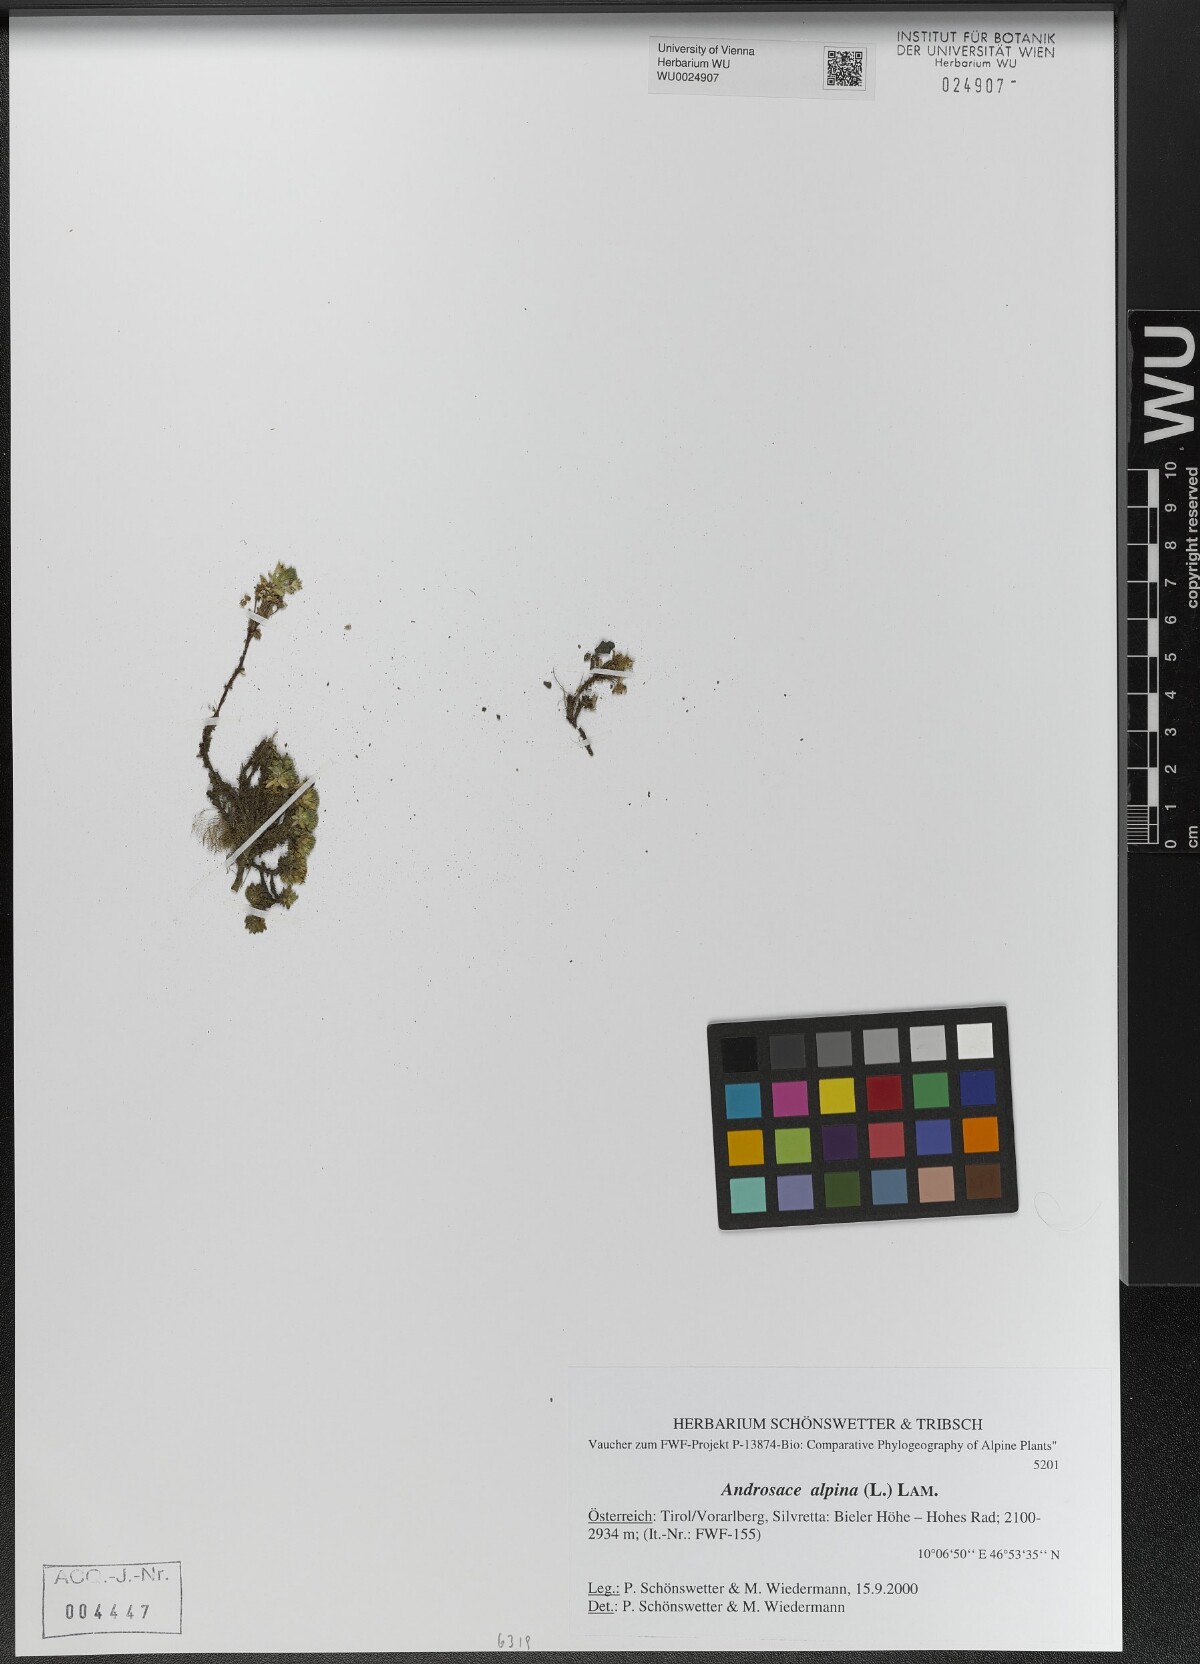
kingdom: Plantae
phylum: Tracheophyta
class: Magnoliopsida
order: Ericales
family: Primulaceae
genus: Androsace
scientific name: Androsace alpina
